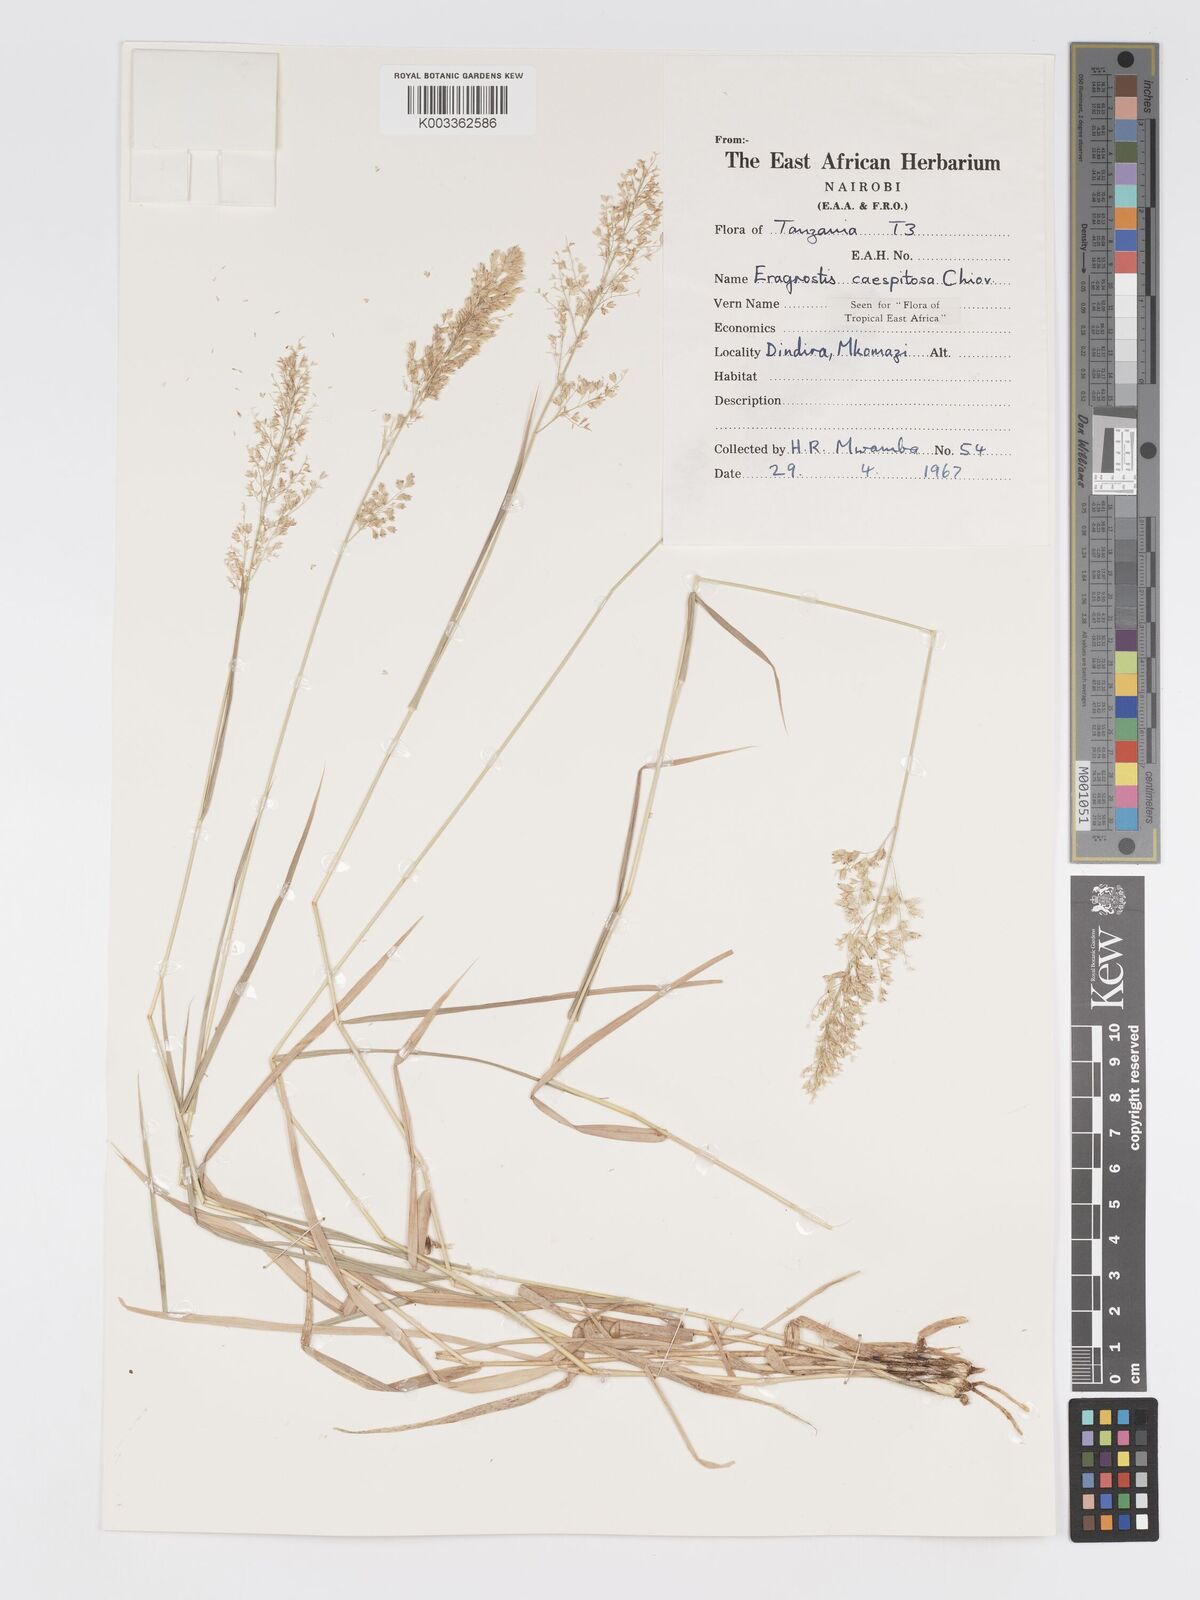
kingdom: Plantae
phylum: Tracheophyta
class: Liliopsida
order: Poales
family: Poaceae
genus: Eragrostis
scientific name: Eragrostis caespitosa
